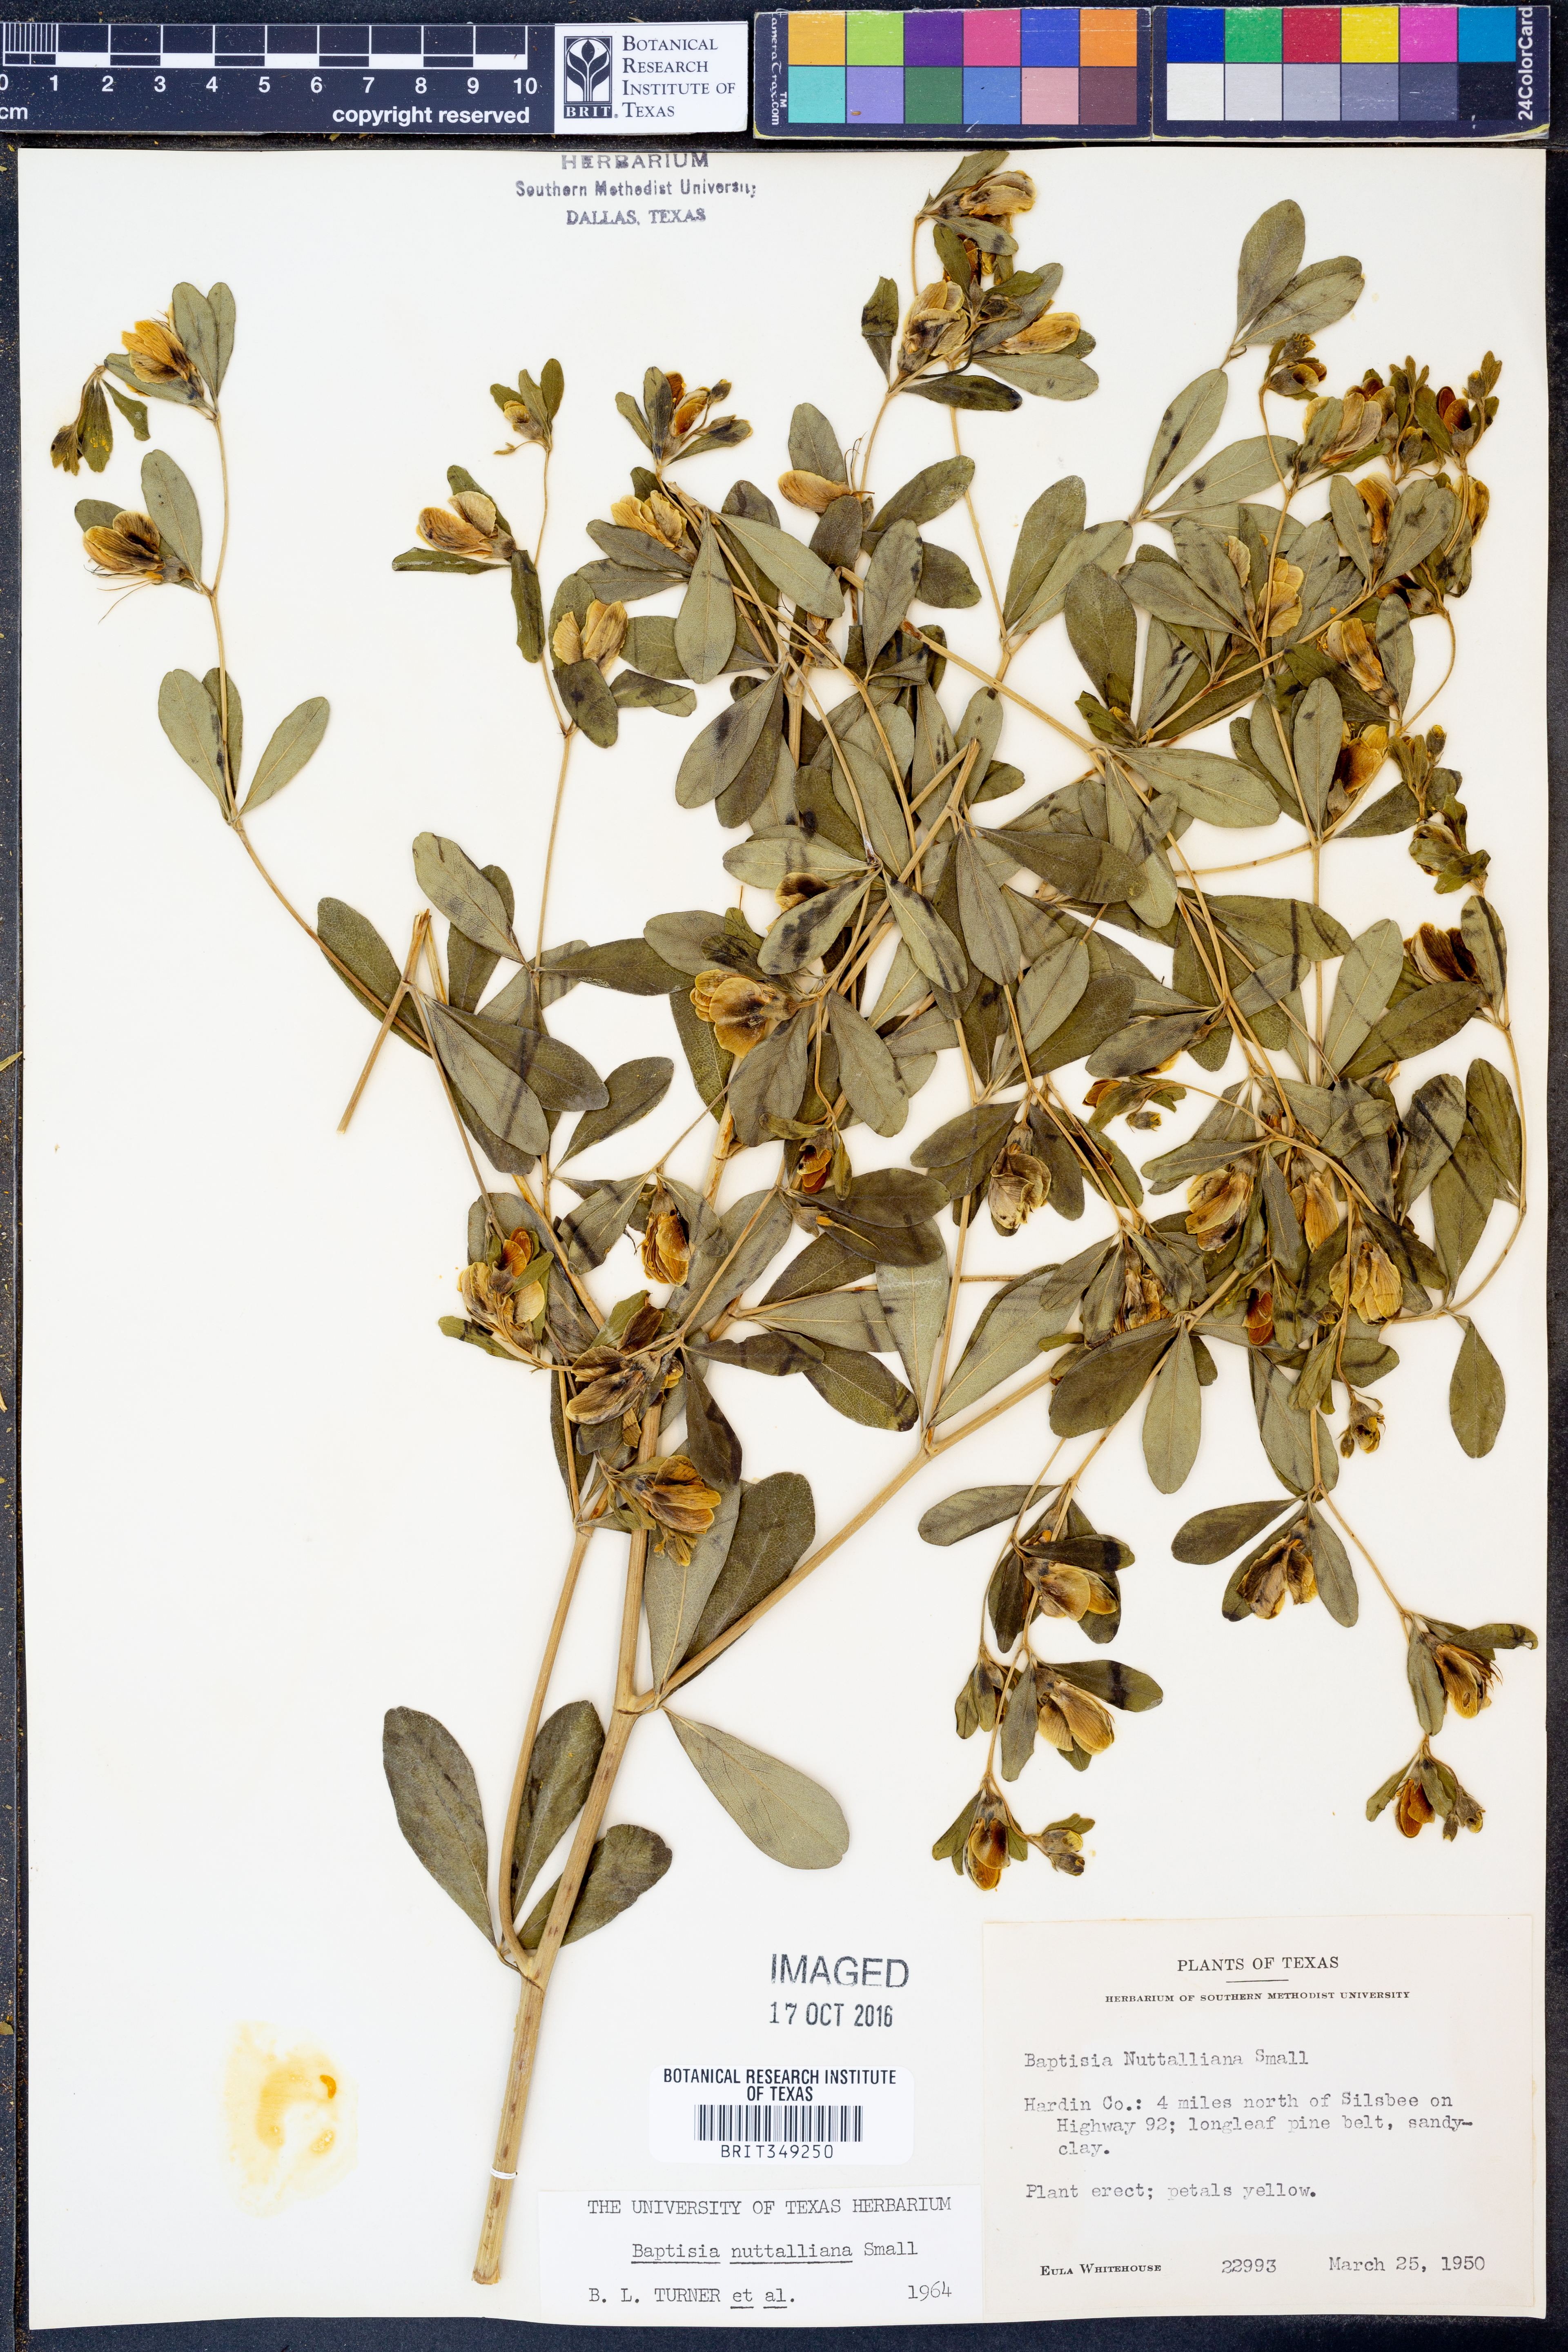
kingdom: Plantae
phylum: Tracheophyta
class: Magnoliopsida
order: Fabales
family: Fabaceae
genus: Baptisia
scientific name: Baptisia nuttalliana
